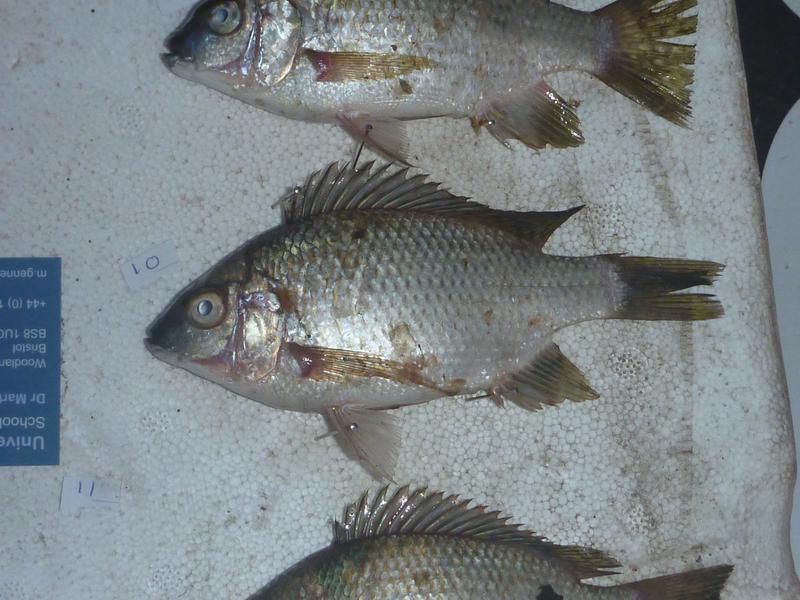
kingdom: Animalia
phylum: Chordata
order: Perciformes
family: Cichlidae
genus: Oreochromis
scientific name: Oreochromis karomo
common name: Karomo
